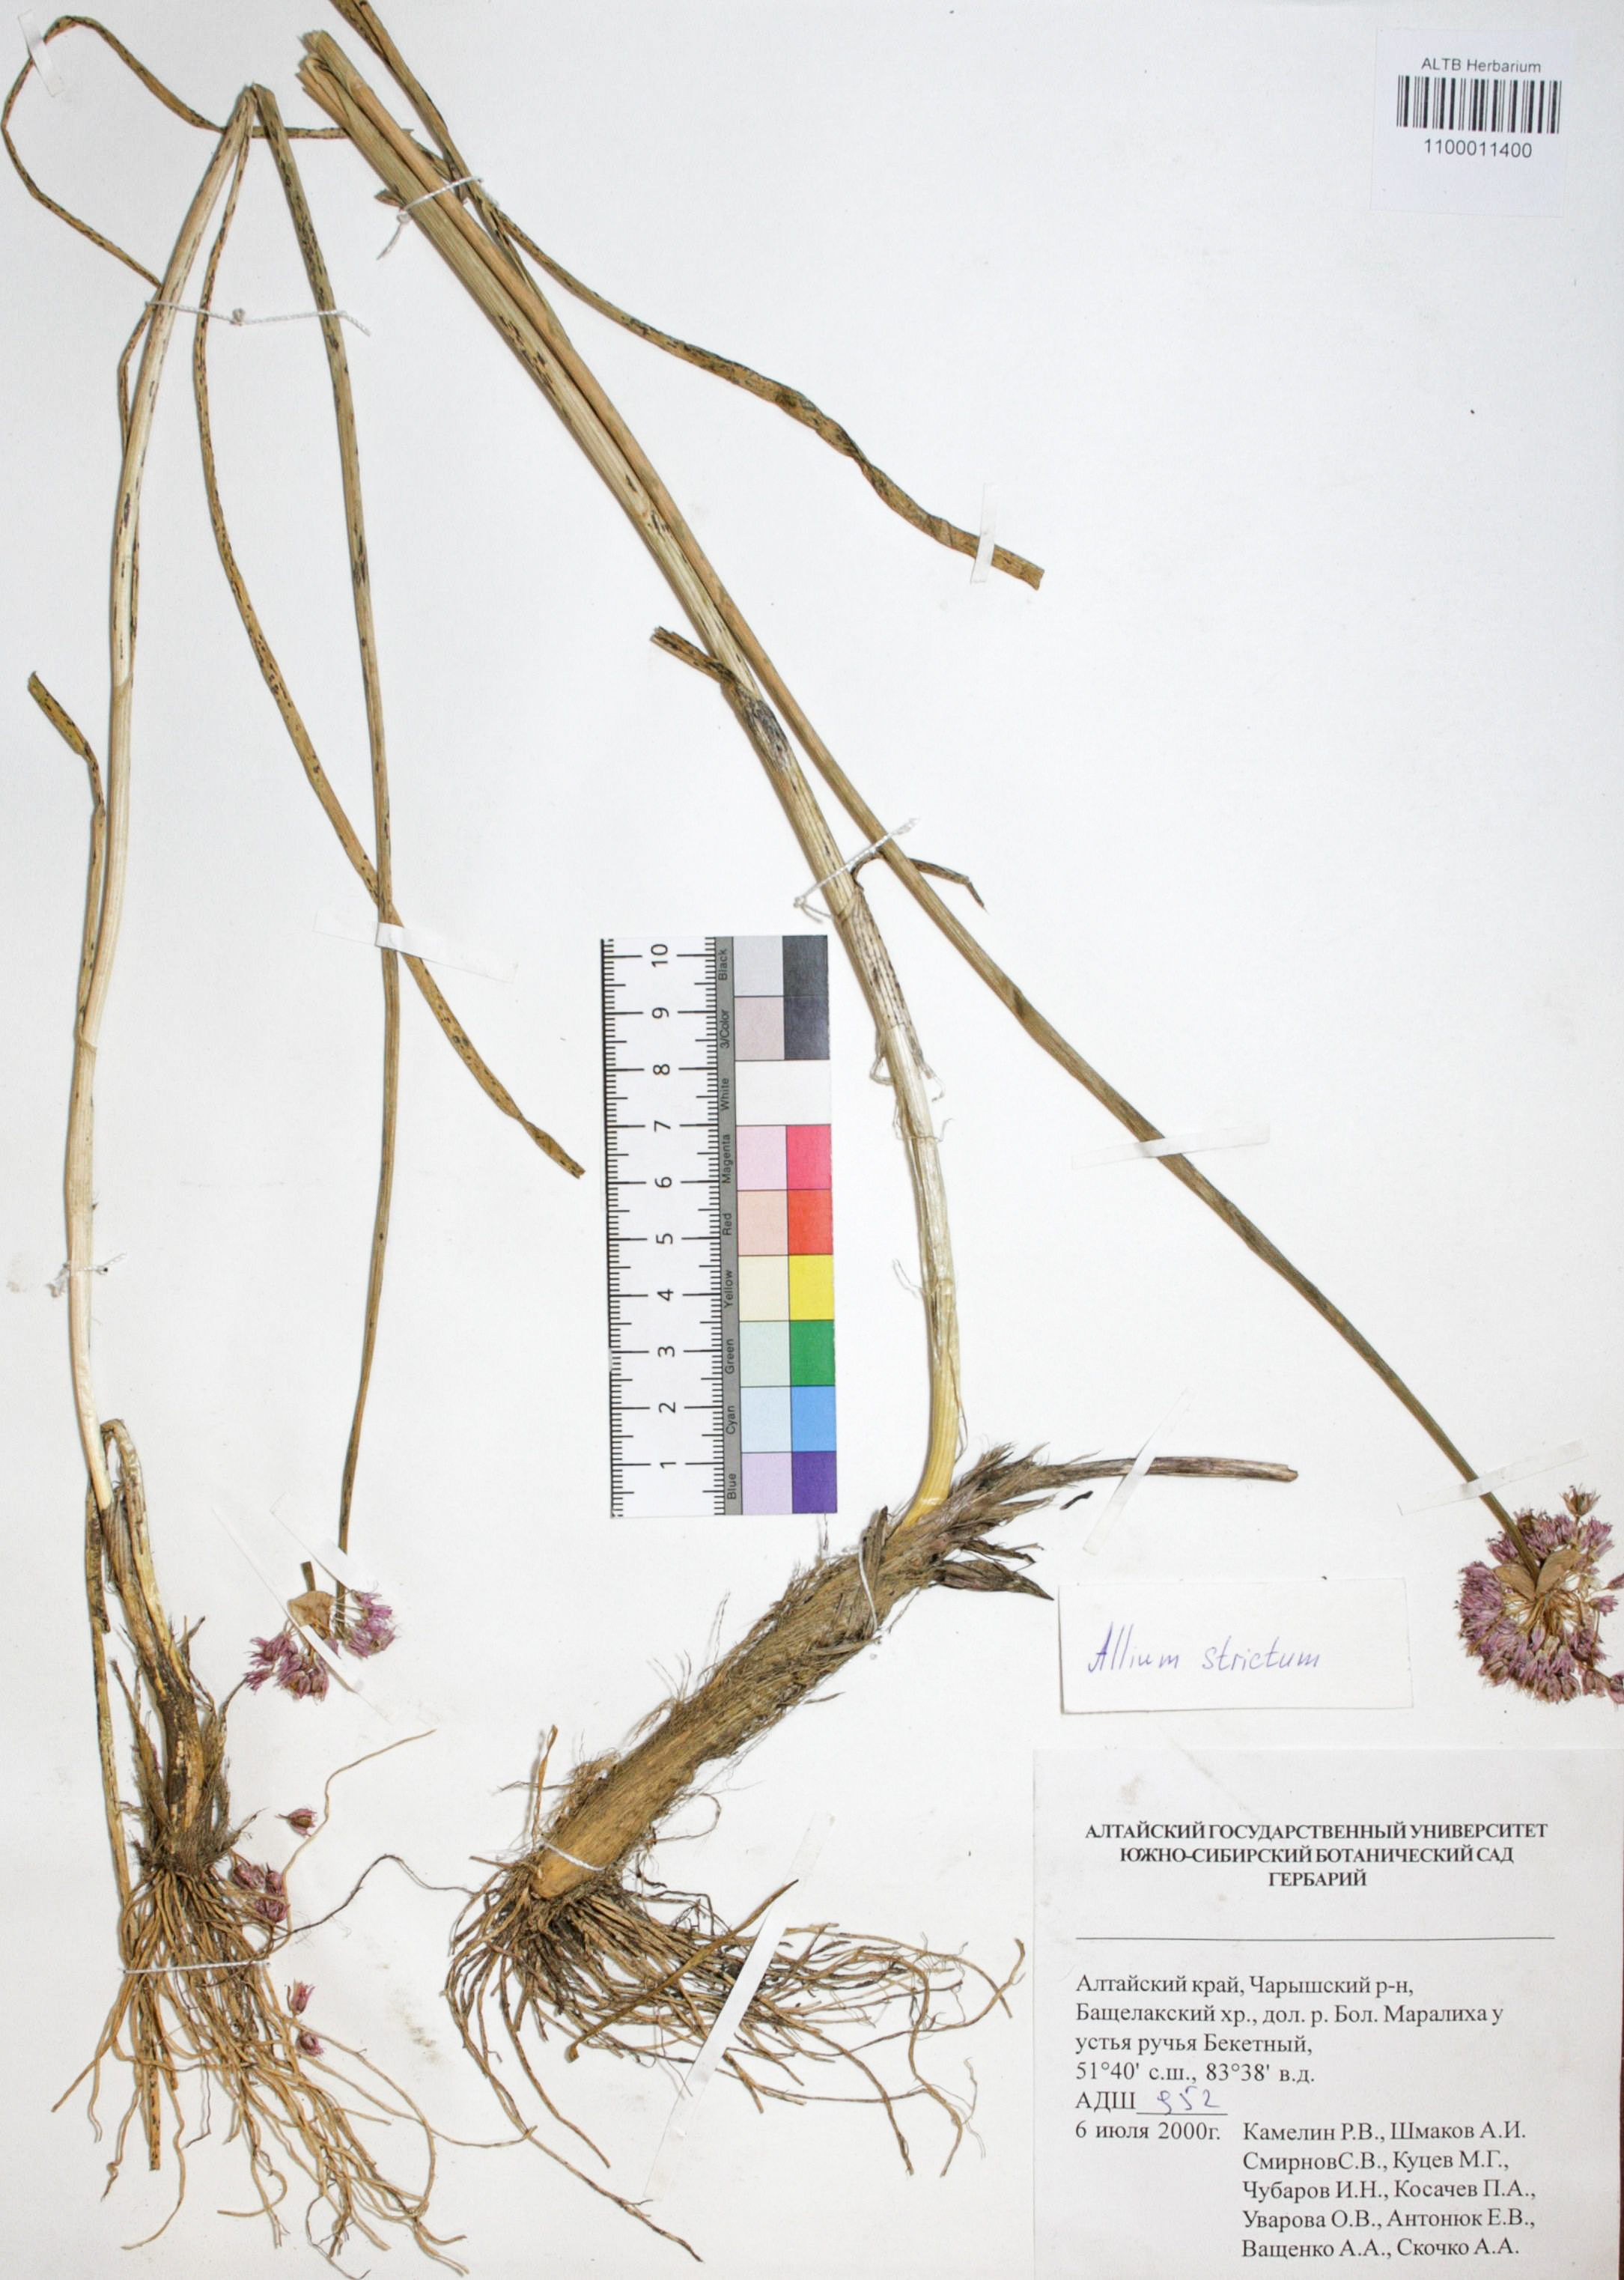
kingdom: Plantae
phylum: Tracheophyta
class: Liliopsida
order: Asparagales
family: Amaryllidaceae
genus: Allium
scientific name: Allium strictum
